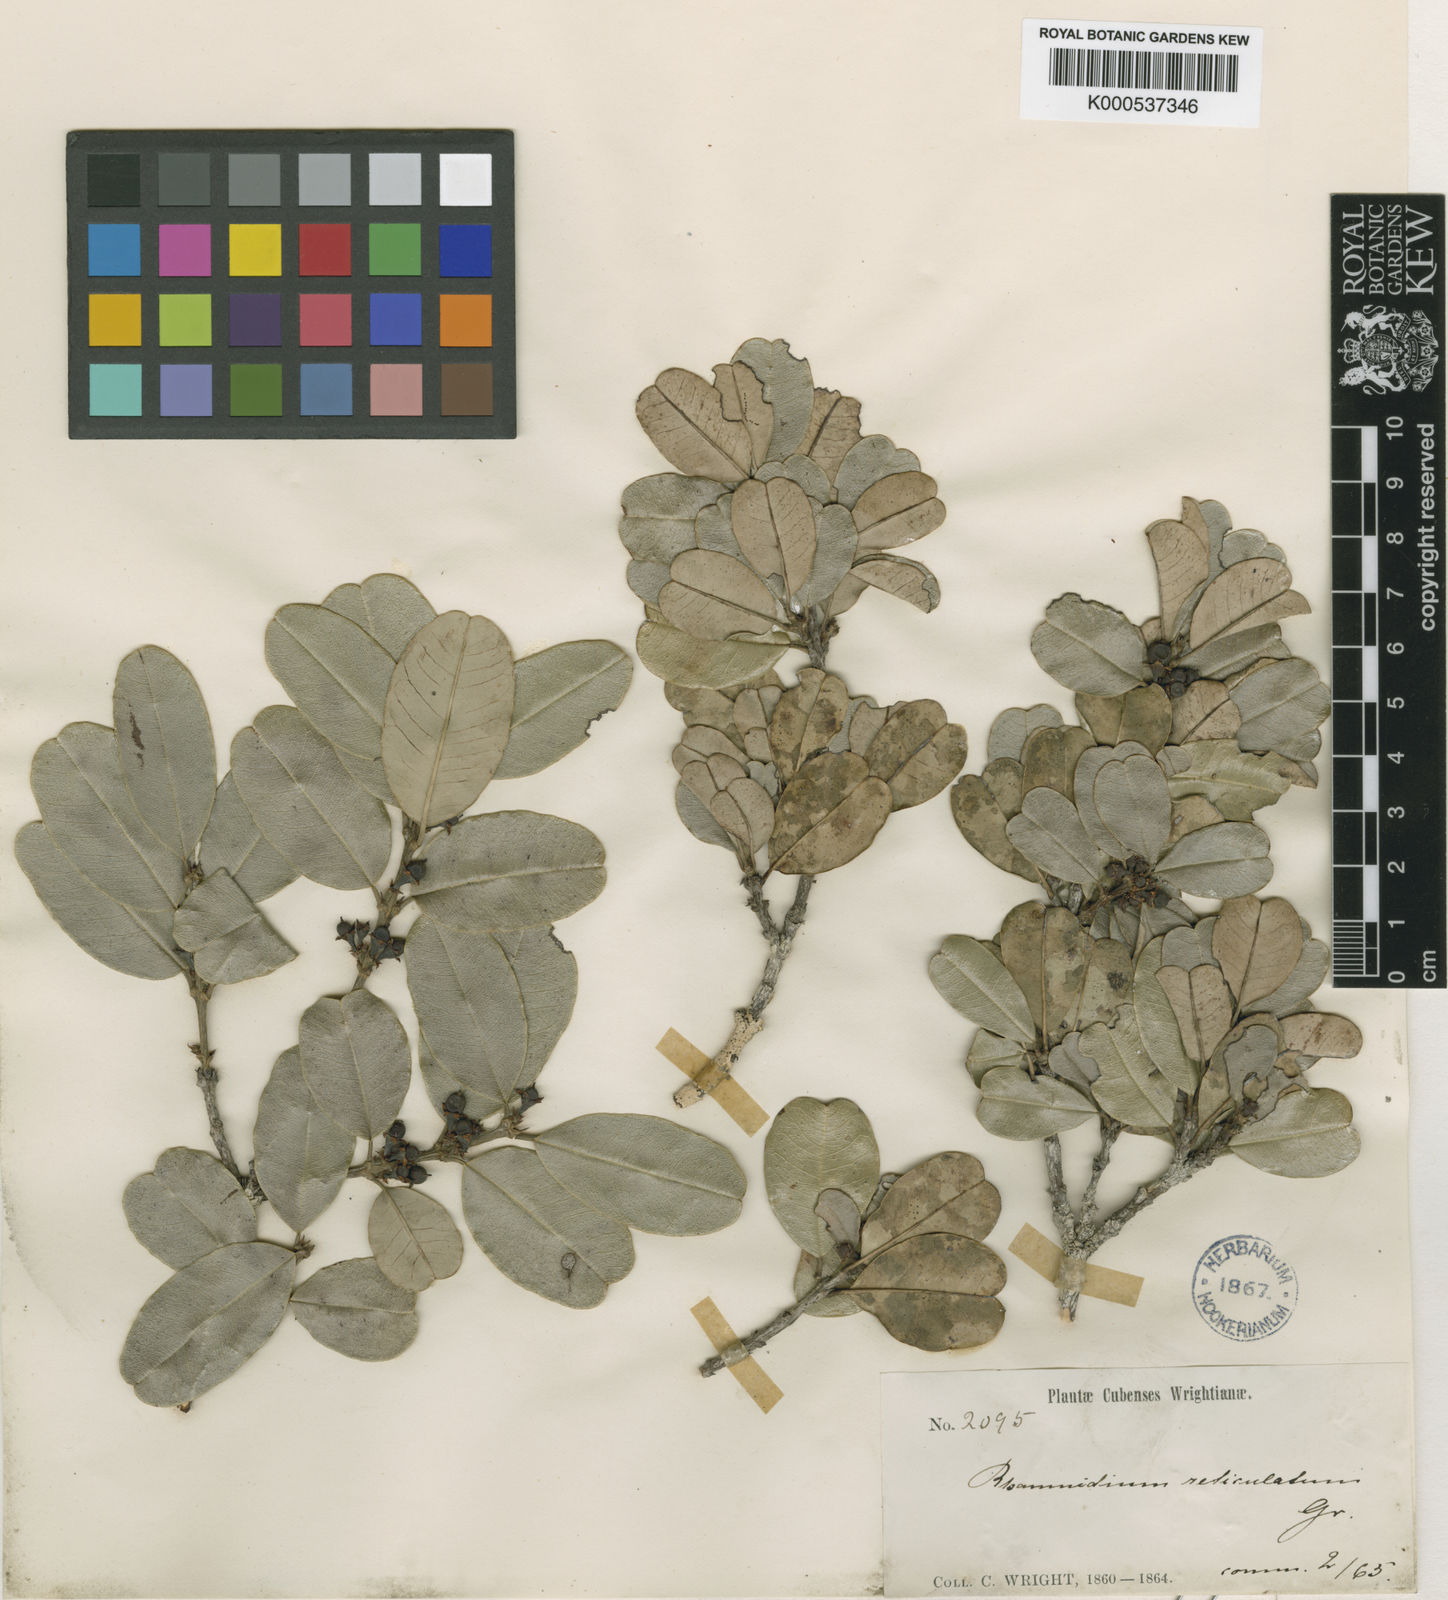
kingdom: Plantae
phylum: Tracheophyta
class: Magnoliopsida
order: Rosales
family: Rhamnaceae
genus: Auerodendron
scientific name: Auerodendron reticulatum
